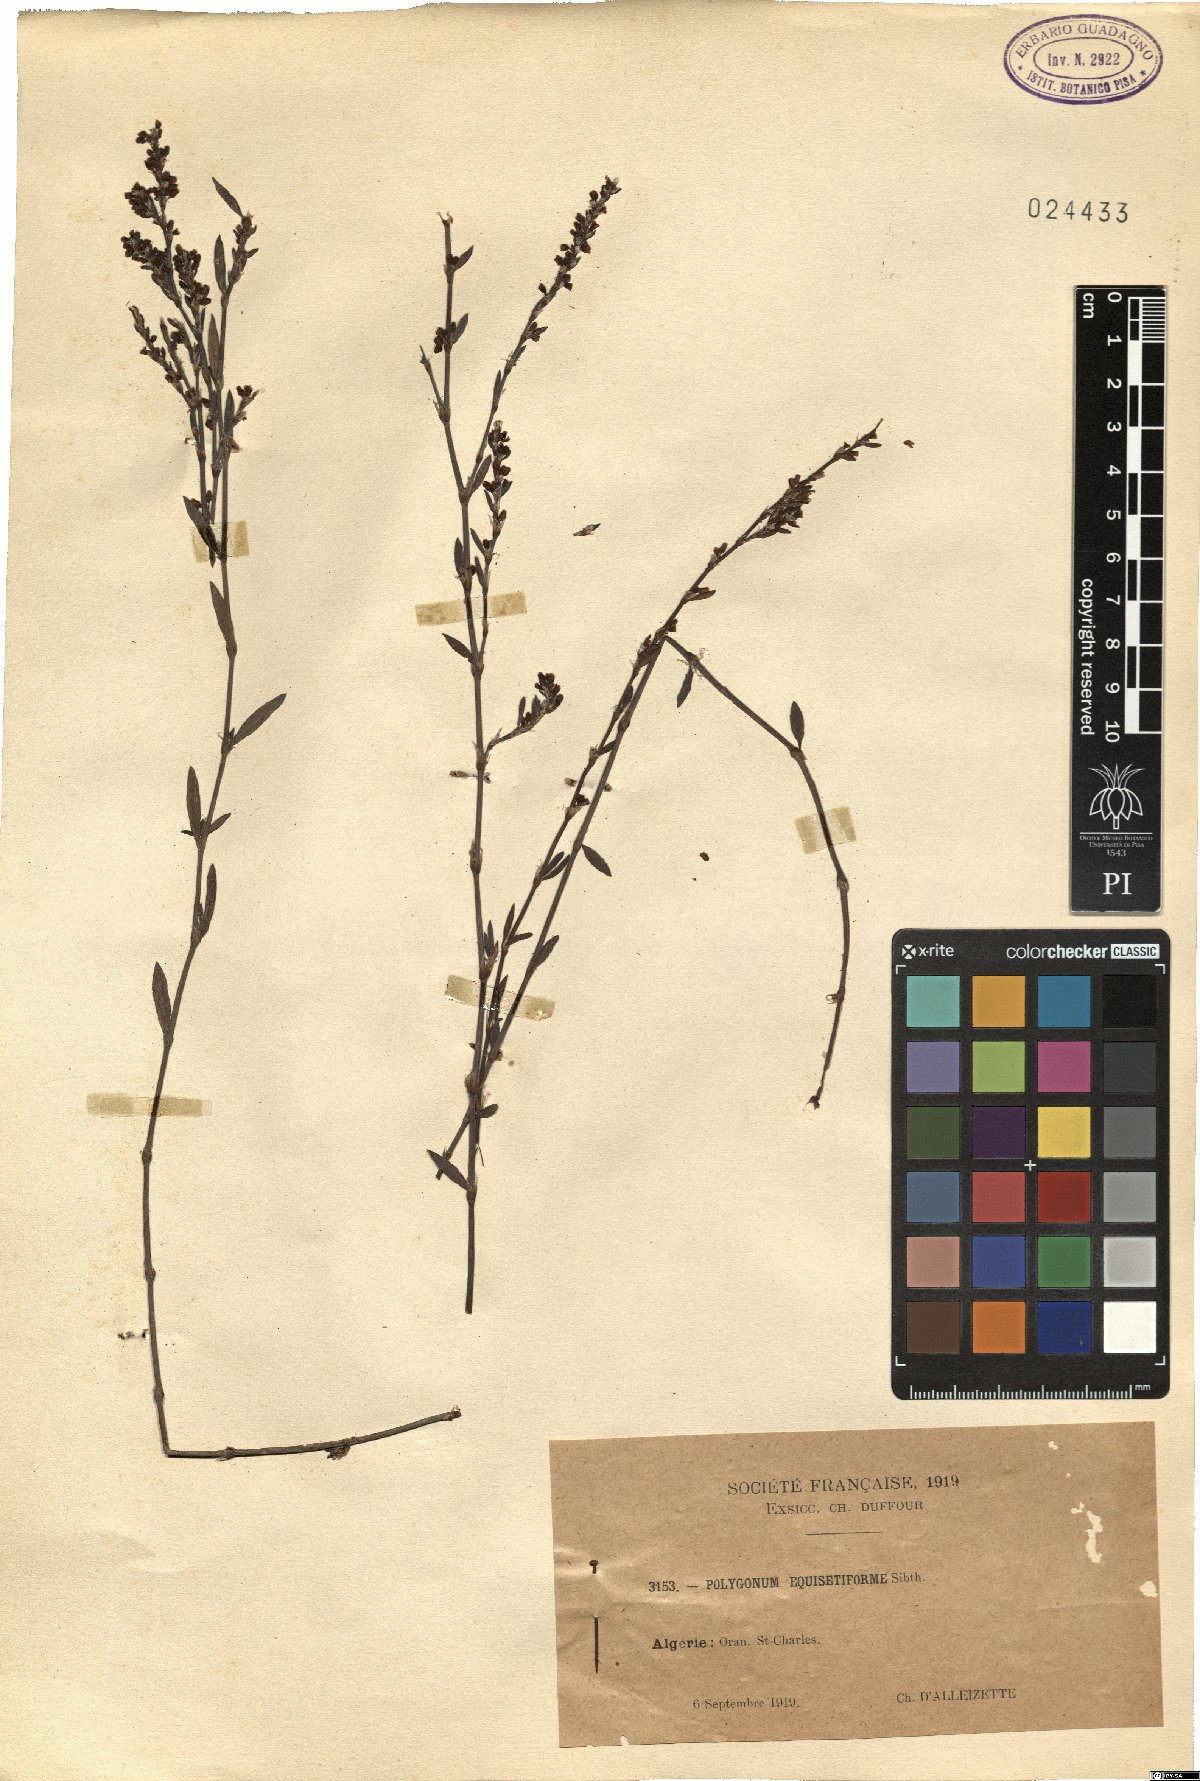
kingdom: Plantae
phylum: Tracheophyta
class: Magnoliopsida
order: Caryophyllales
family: Polygonaceae
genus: Polygonum
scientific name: Polygonum equisetiforme
